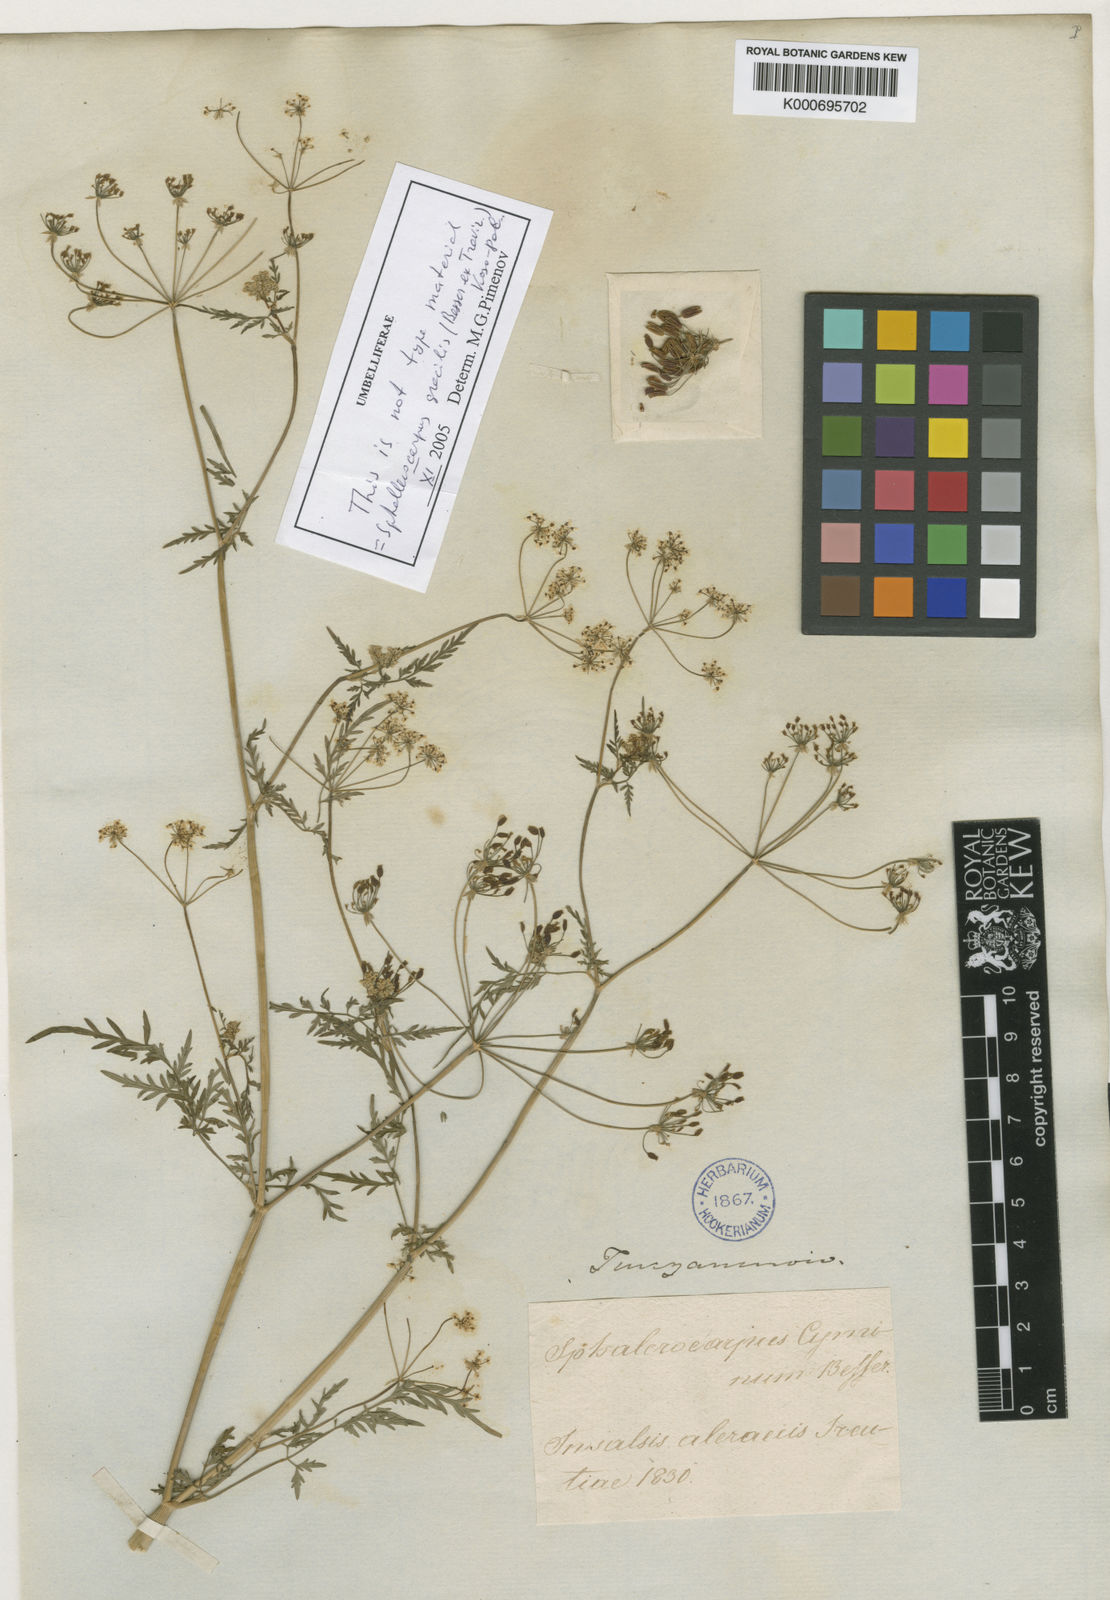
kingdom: Plantae
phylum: Tracheophyta
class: Magnoliopsida
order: Apiales
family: Apiaceae
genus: Sphallerocarpus
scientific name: Sphallerocarpus gracilis
